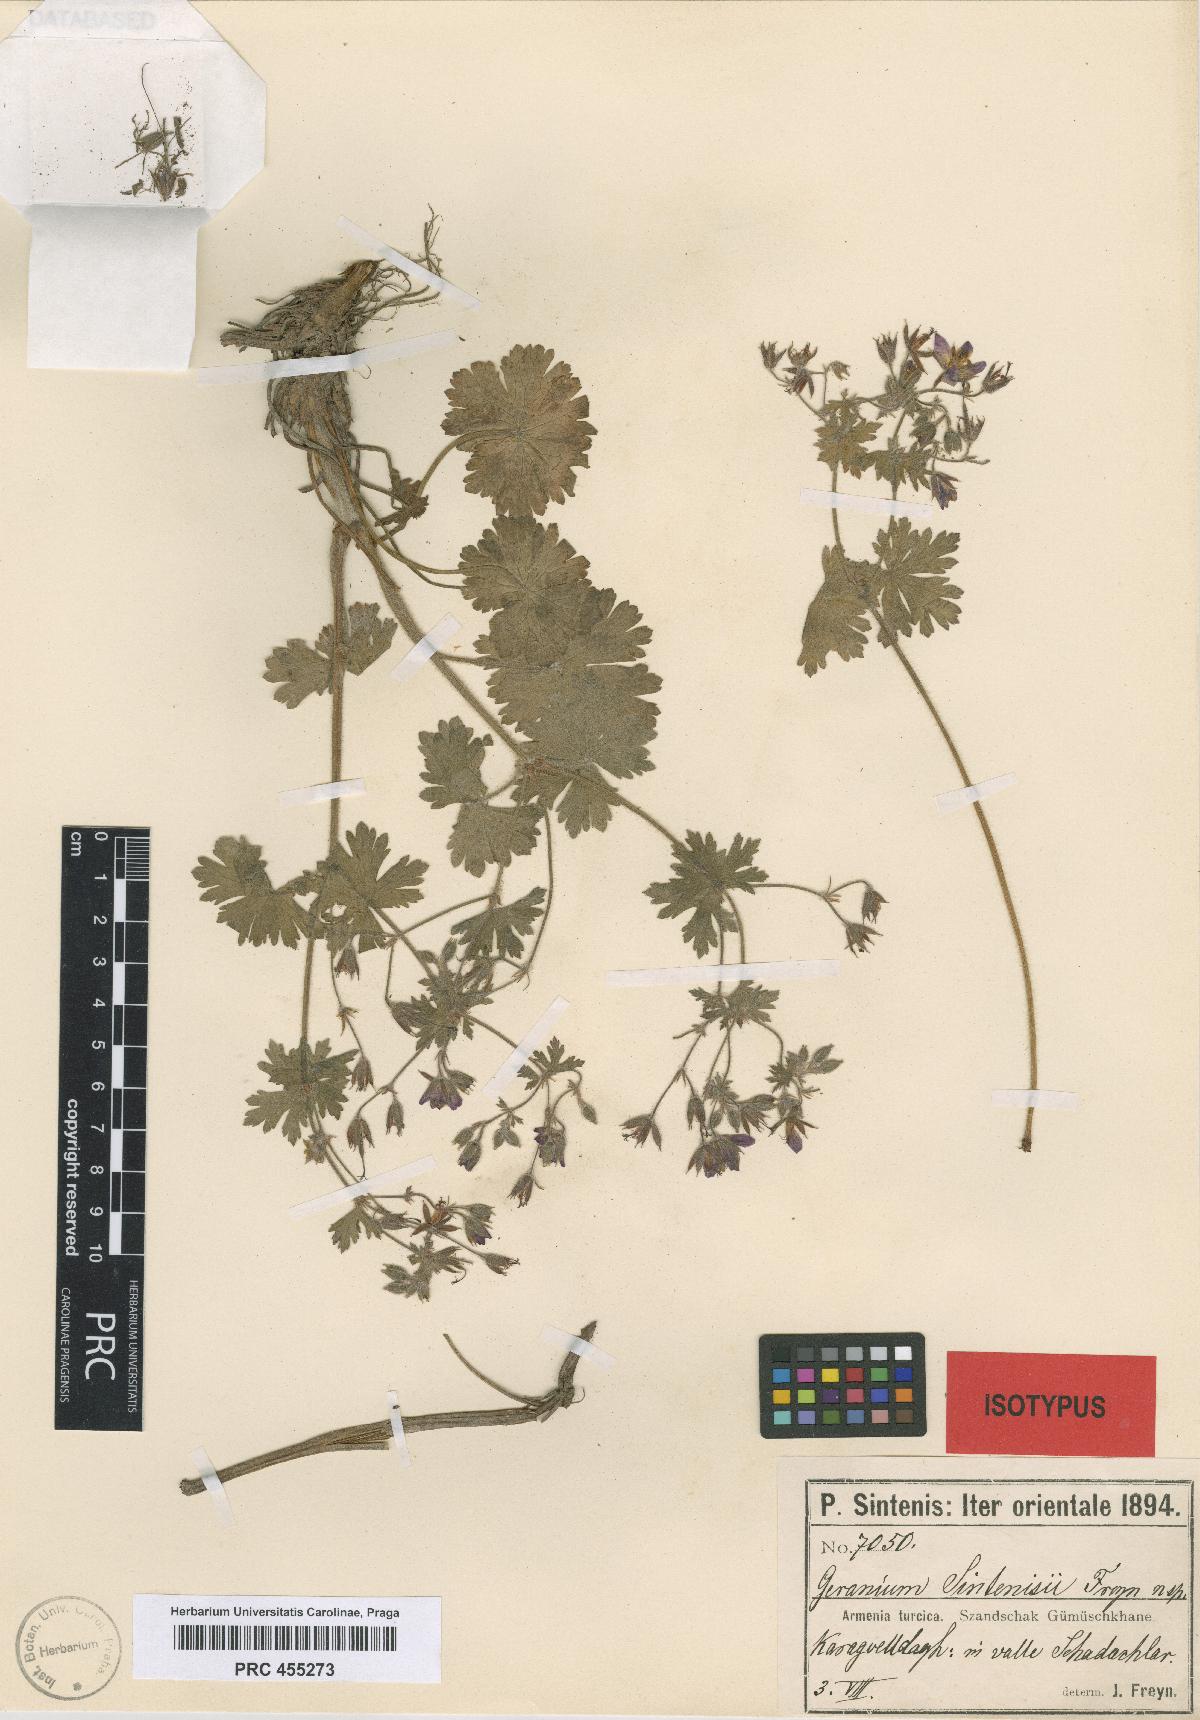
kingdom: Plantae
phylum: Tracheophyta
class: Magnoliopsida
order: Geraniales
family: Geraniaceae
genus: Geranium
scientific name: Geranium sintenisii
